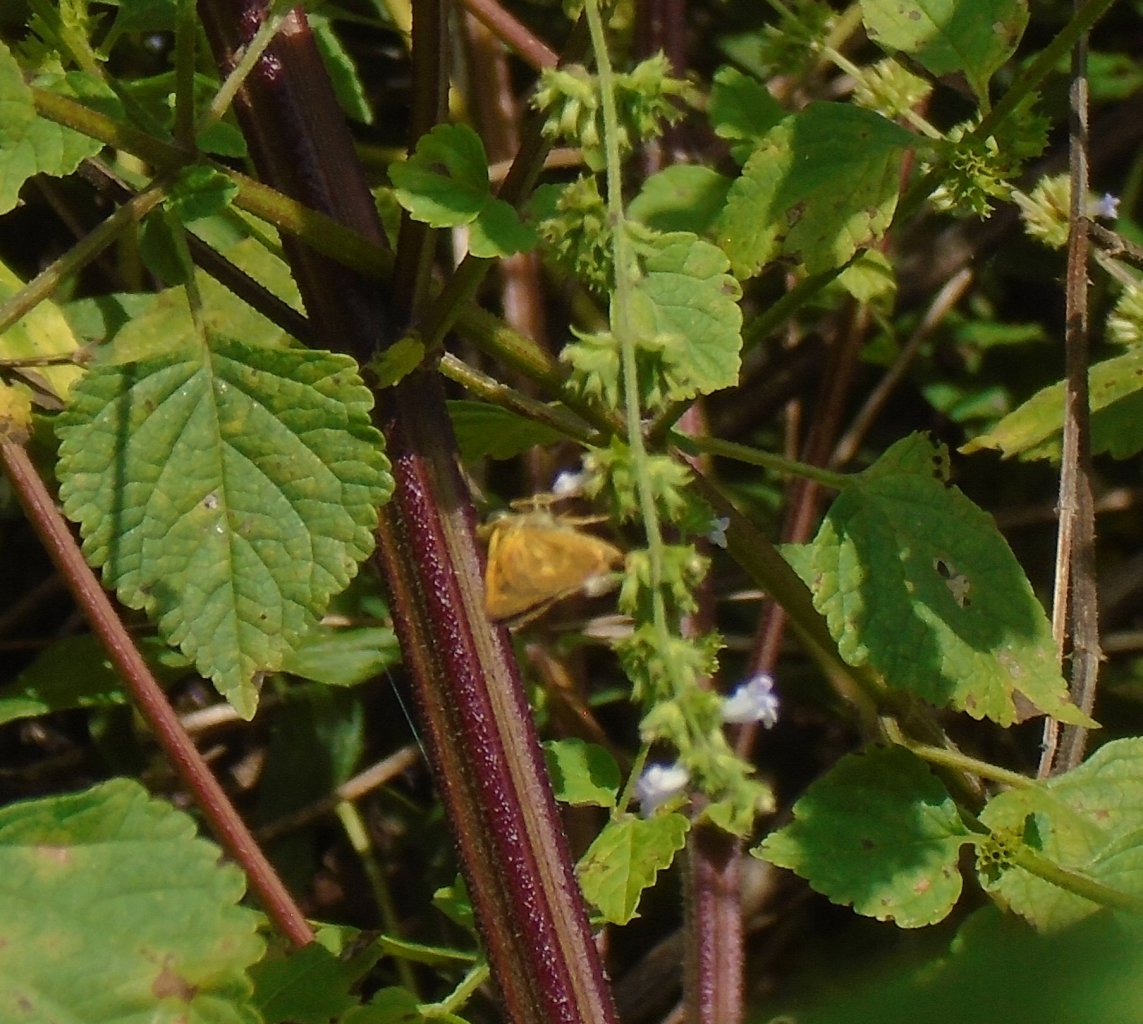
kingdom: Animalia
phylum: Arthropoda
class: Insecta
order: Lepidoptera
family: Hesperiidae
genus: Poanes
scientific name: Poanes yehl
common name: Yehl Skipper
